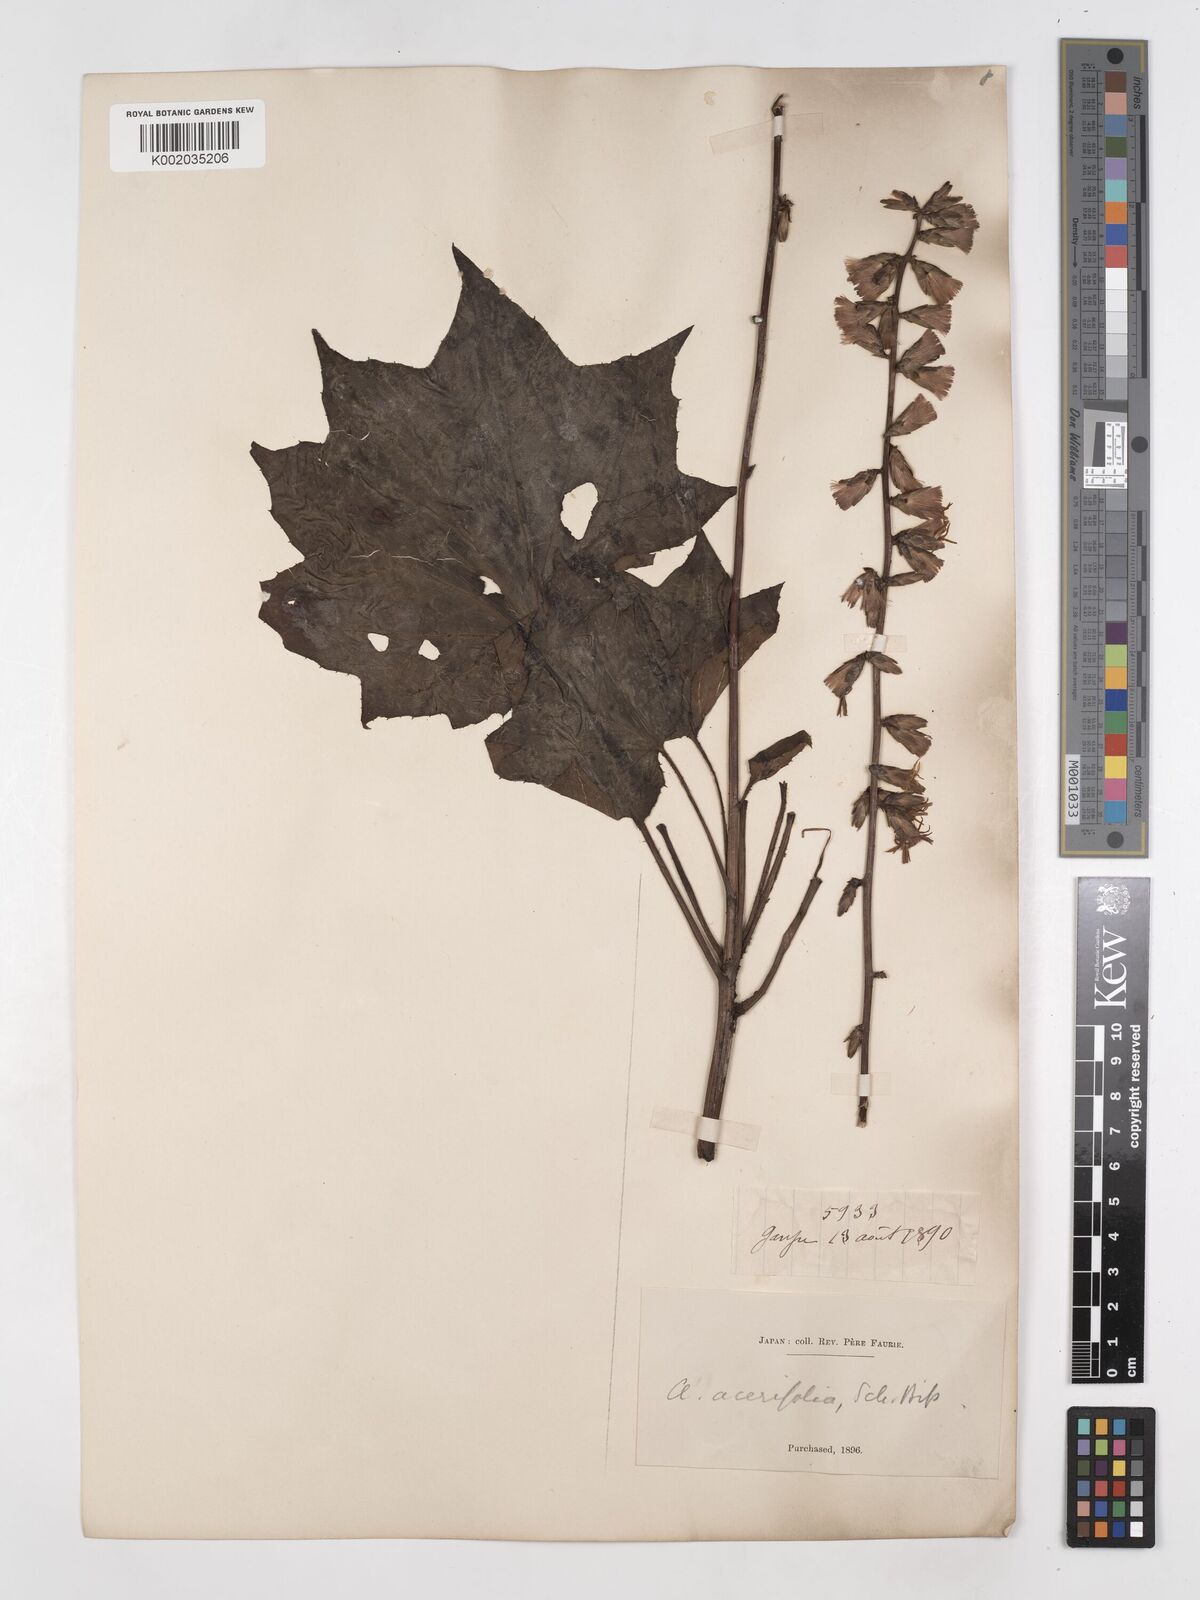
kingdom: Plantae
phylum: Tracheophyta
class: Magnoliopsida
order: Asterales
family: Asteraceae
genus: Ainsliaea
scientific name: Ainsliaea acerifolia
